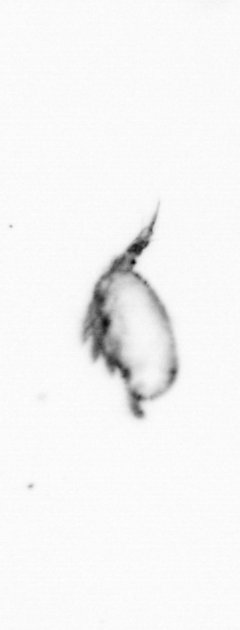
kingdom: Animalia
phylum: Arthropoda
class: Copepoda
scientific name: Copepoda
